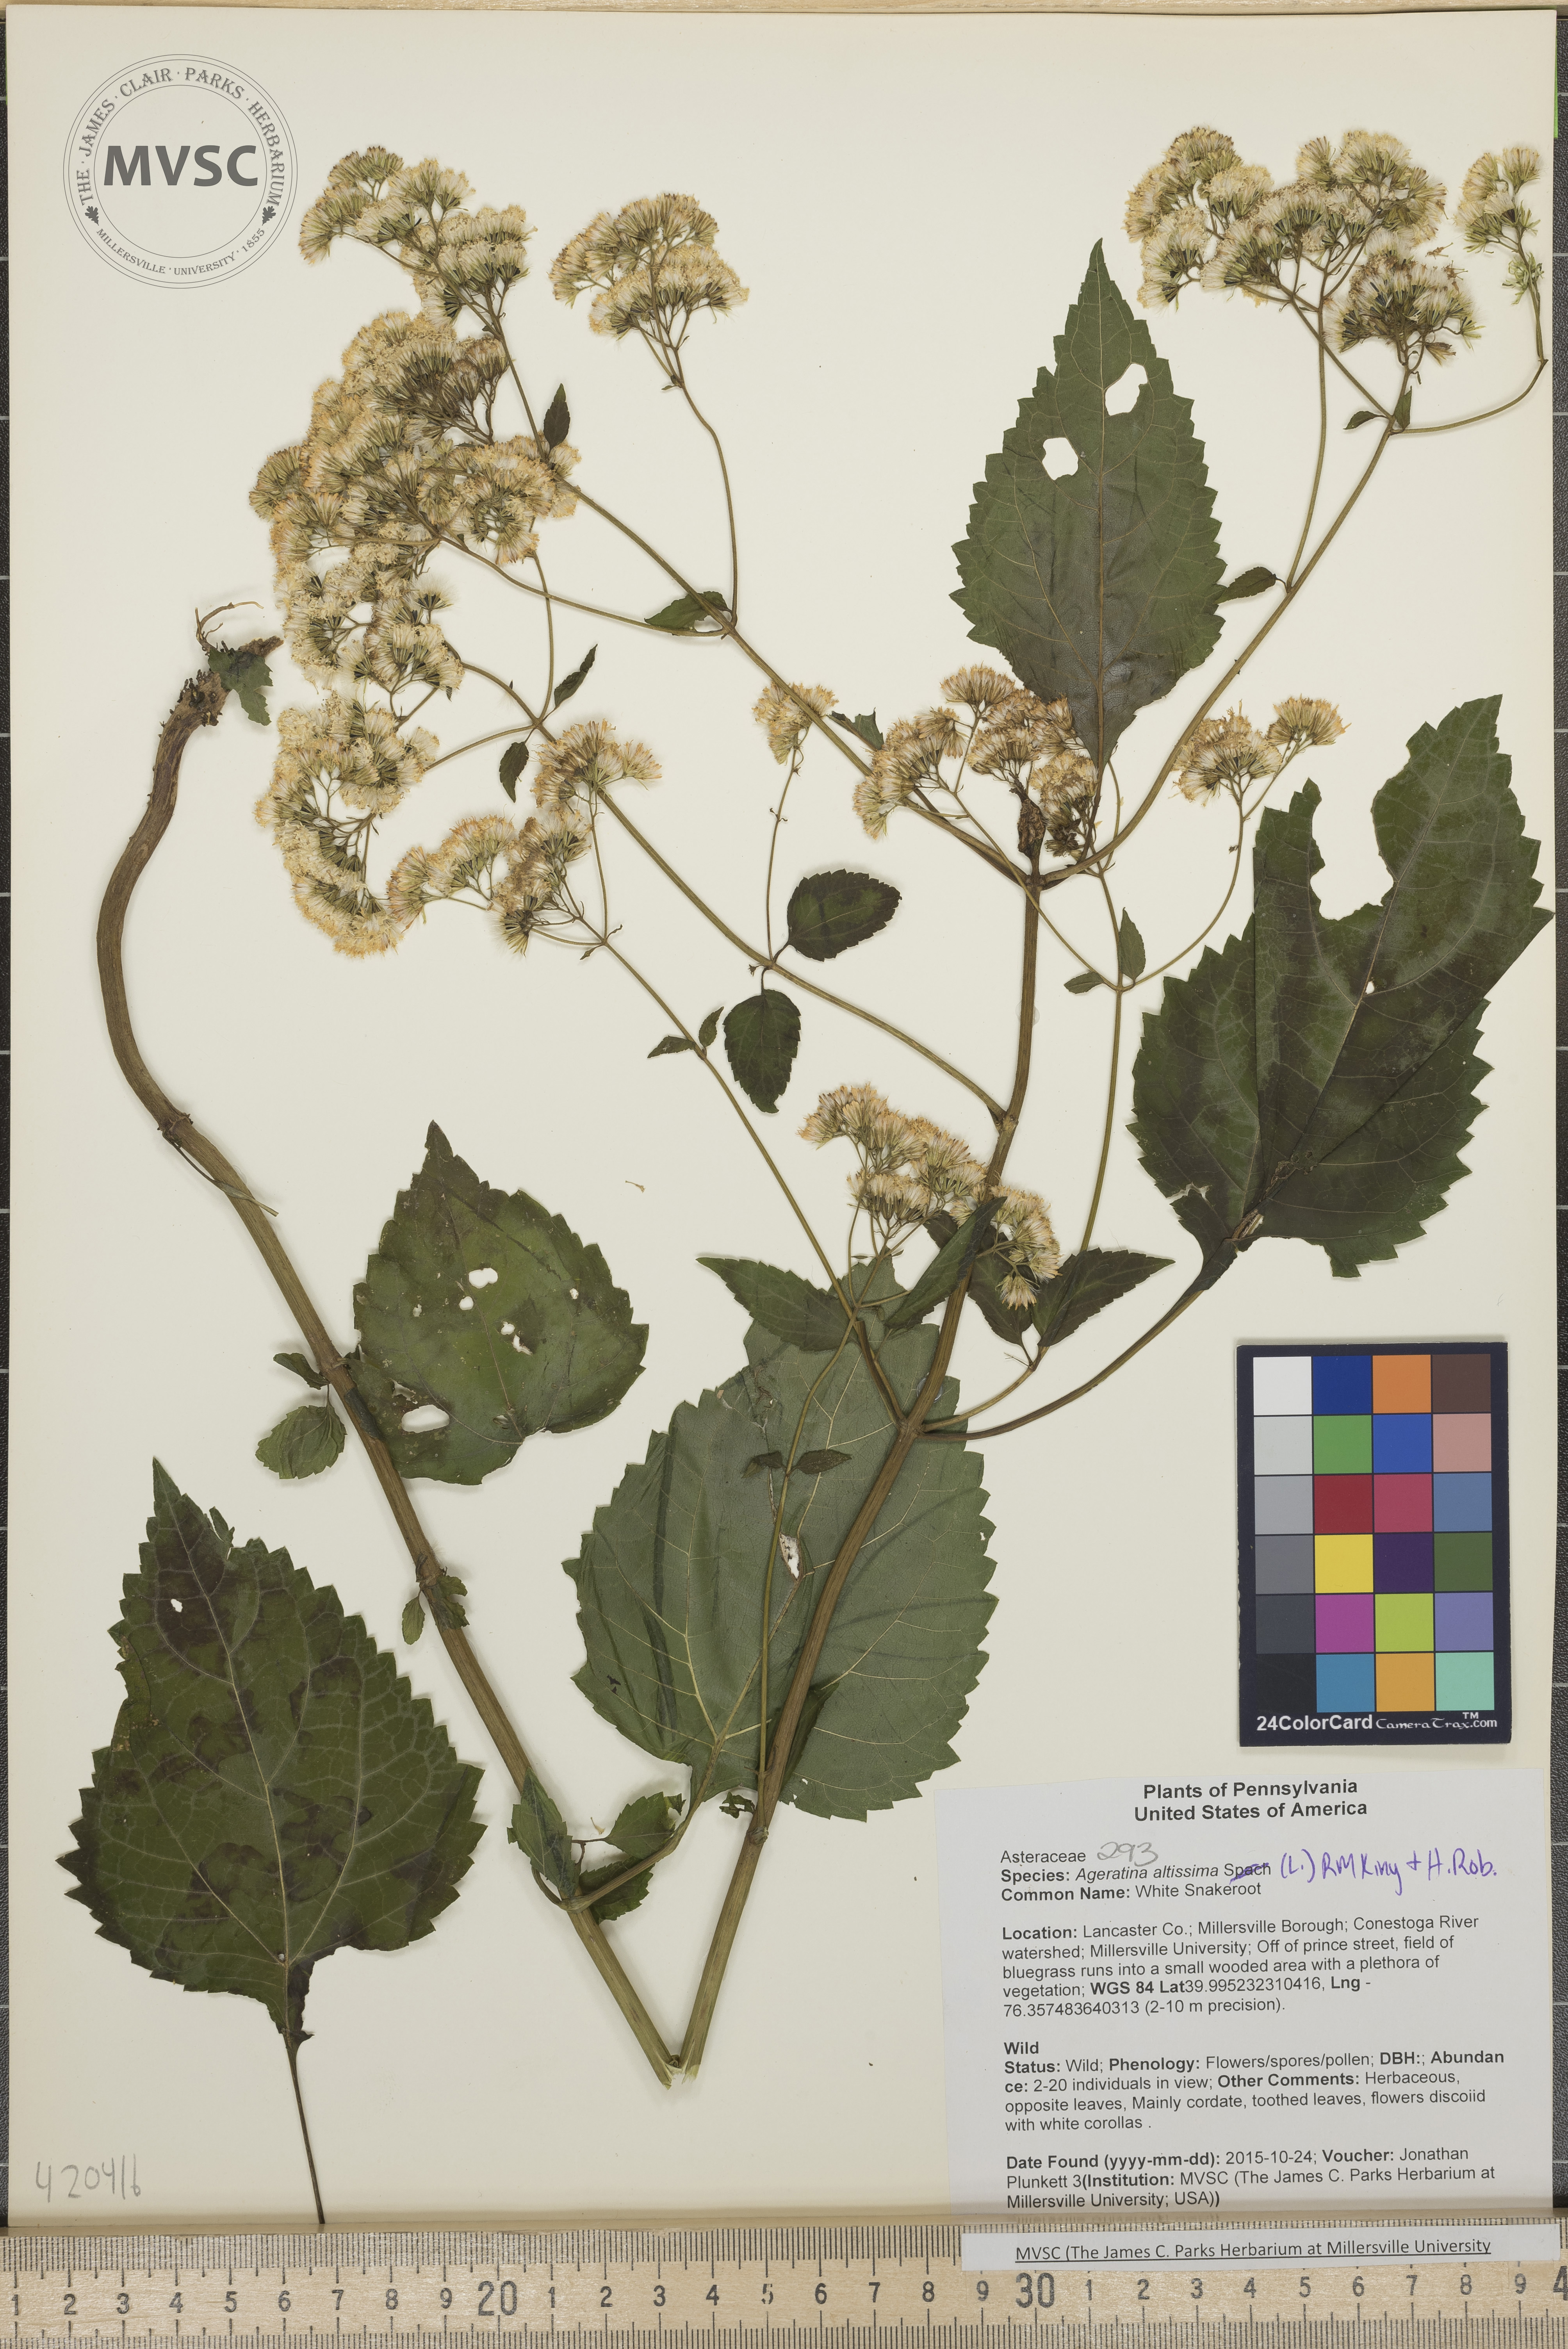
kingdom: Plantae
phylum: Tracheophyta
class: Magnoliopsida
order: Asterales
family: Asteraceae
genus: Ageratina
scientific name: Ageratina altissima
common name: White Snakeroot
